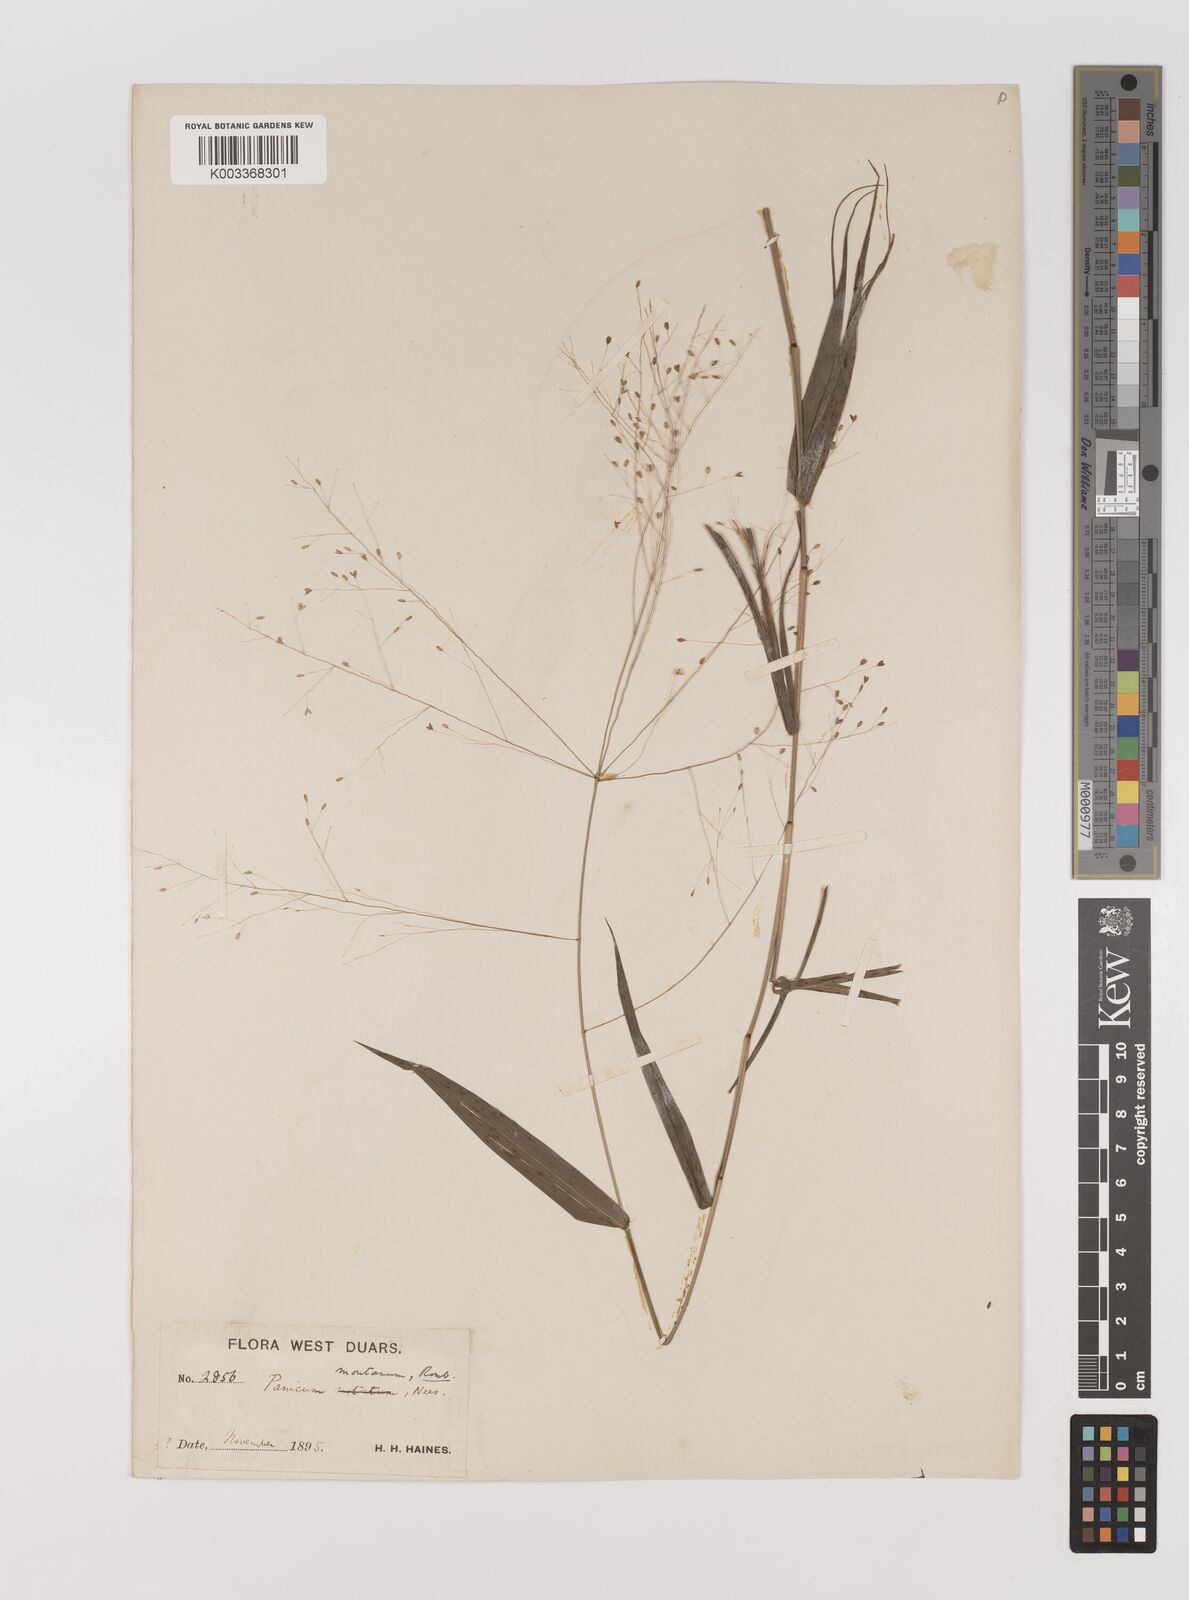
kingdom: Plantae
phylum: Tracheophyta
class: Liliopsida
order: Poales
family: Poaceae
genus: Panicum
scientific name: Panicum notatum
